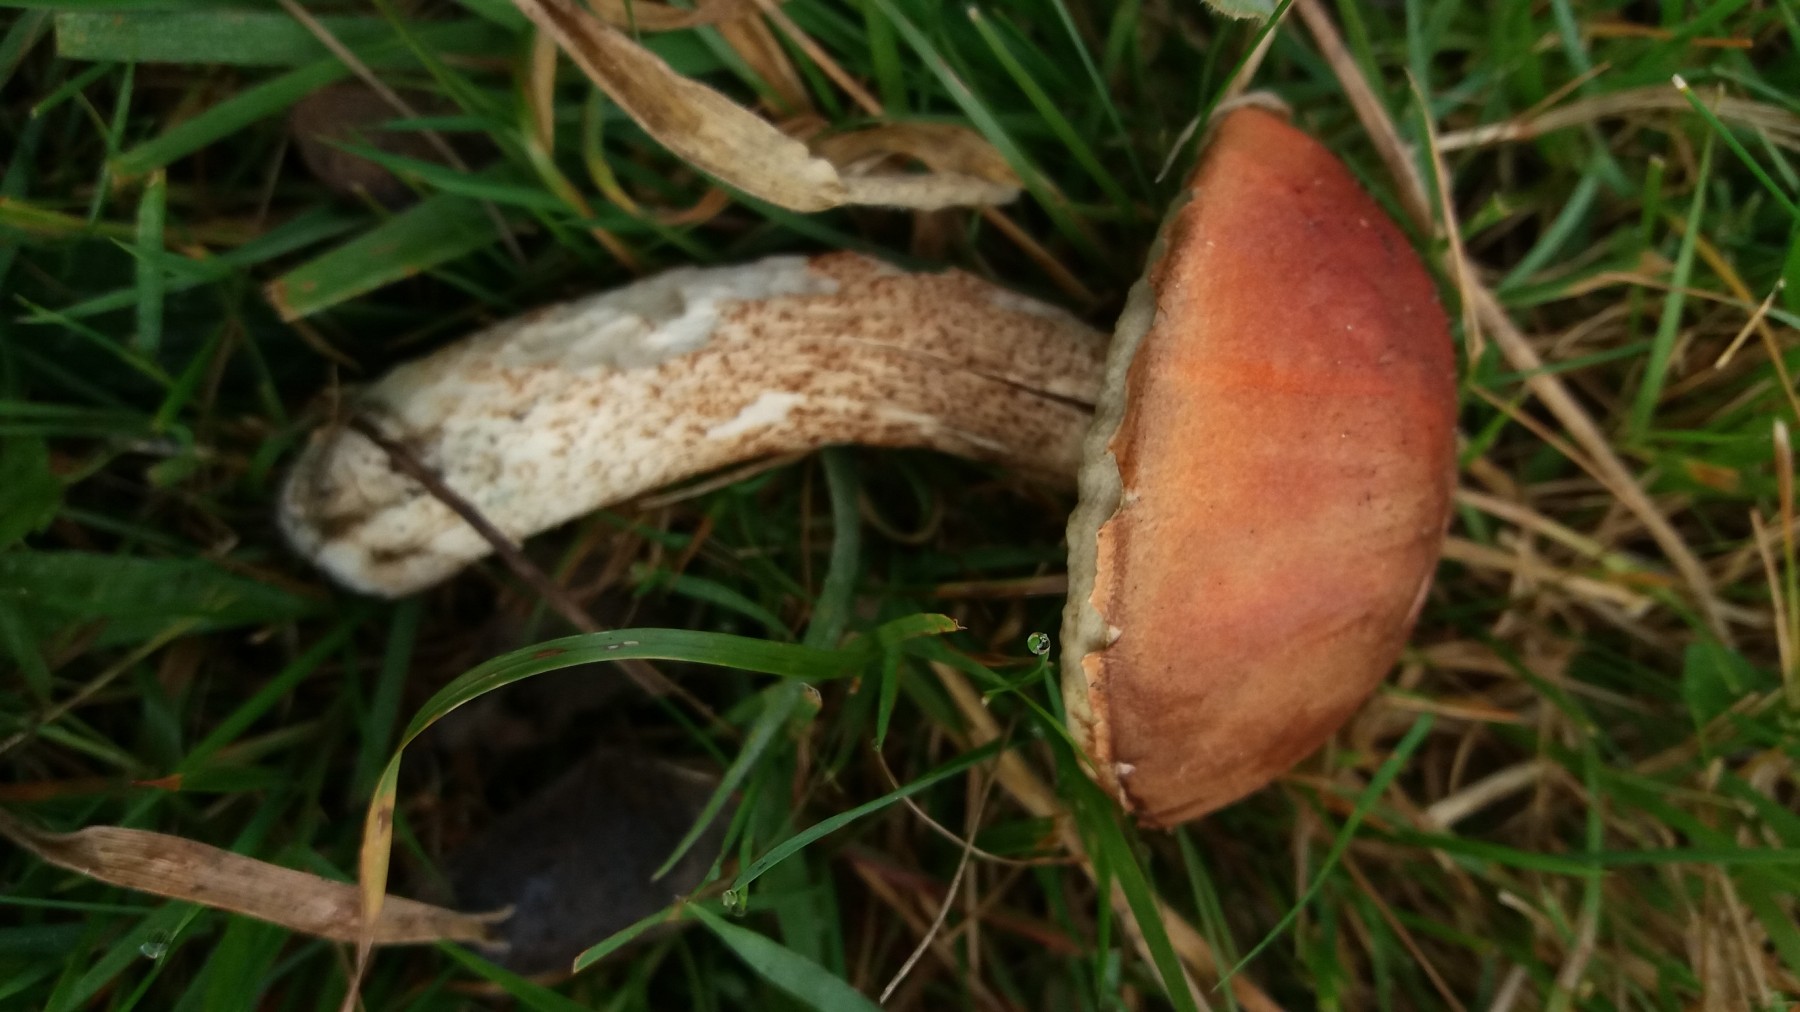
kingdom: Fungi
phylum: Basidiomycota
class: Agaricomycetes
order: Boletales
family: Boletaceae
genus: Leccinum
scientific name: Leccinum aurantiacum
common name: rustrød skælrørhat
